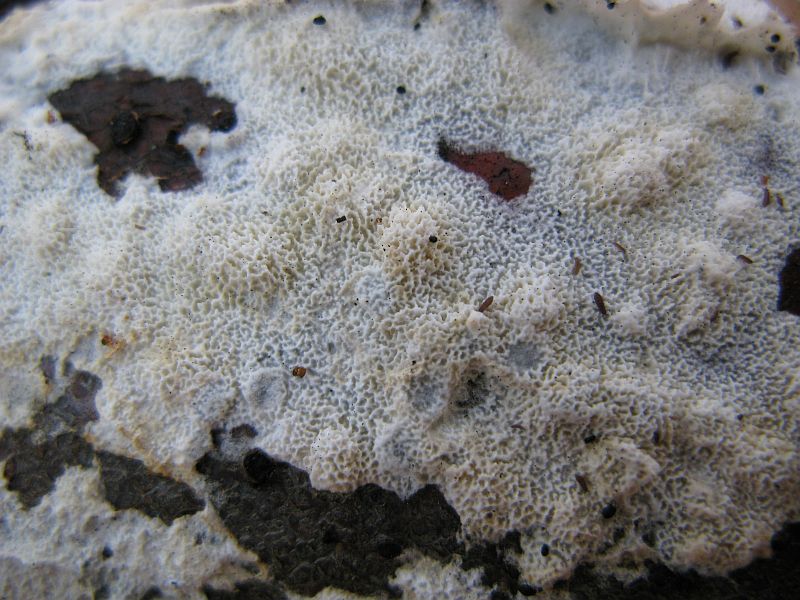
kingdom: Fungi
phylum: Basidiomycota
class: Agaricomycetes
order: Hymenochaetales
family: Schizoporaceae
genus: Schizopora
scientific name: Schizopora paradoxa
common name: hvid tandsvamp
